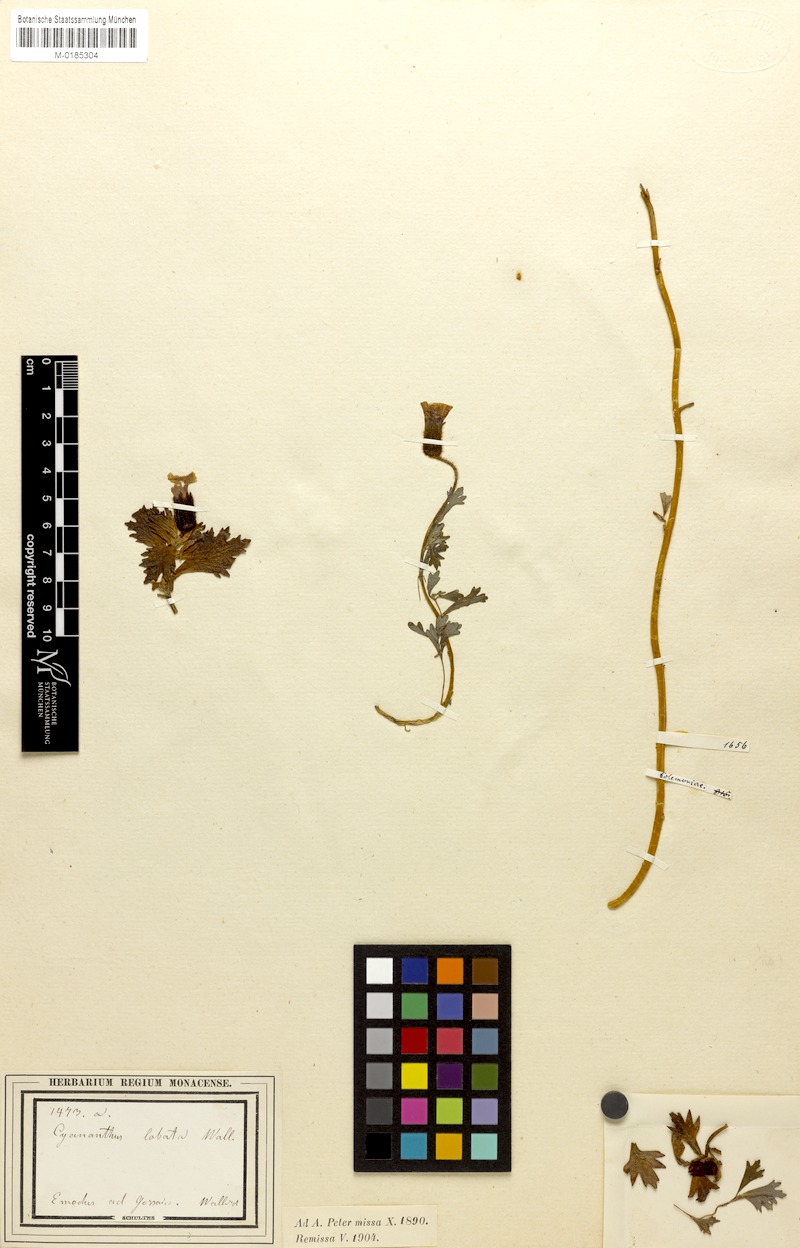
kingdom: Plantae
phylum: Tracheophyta
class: Magnoliopsida
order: Asterales
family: Campanulaceae
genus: Cyananthus
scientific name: Cyananthus lobatus
